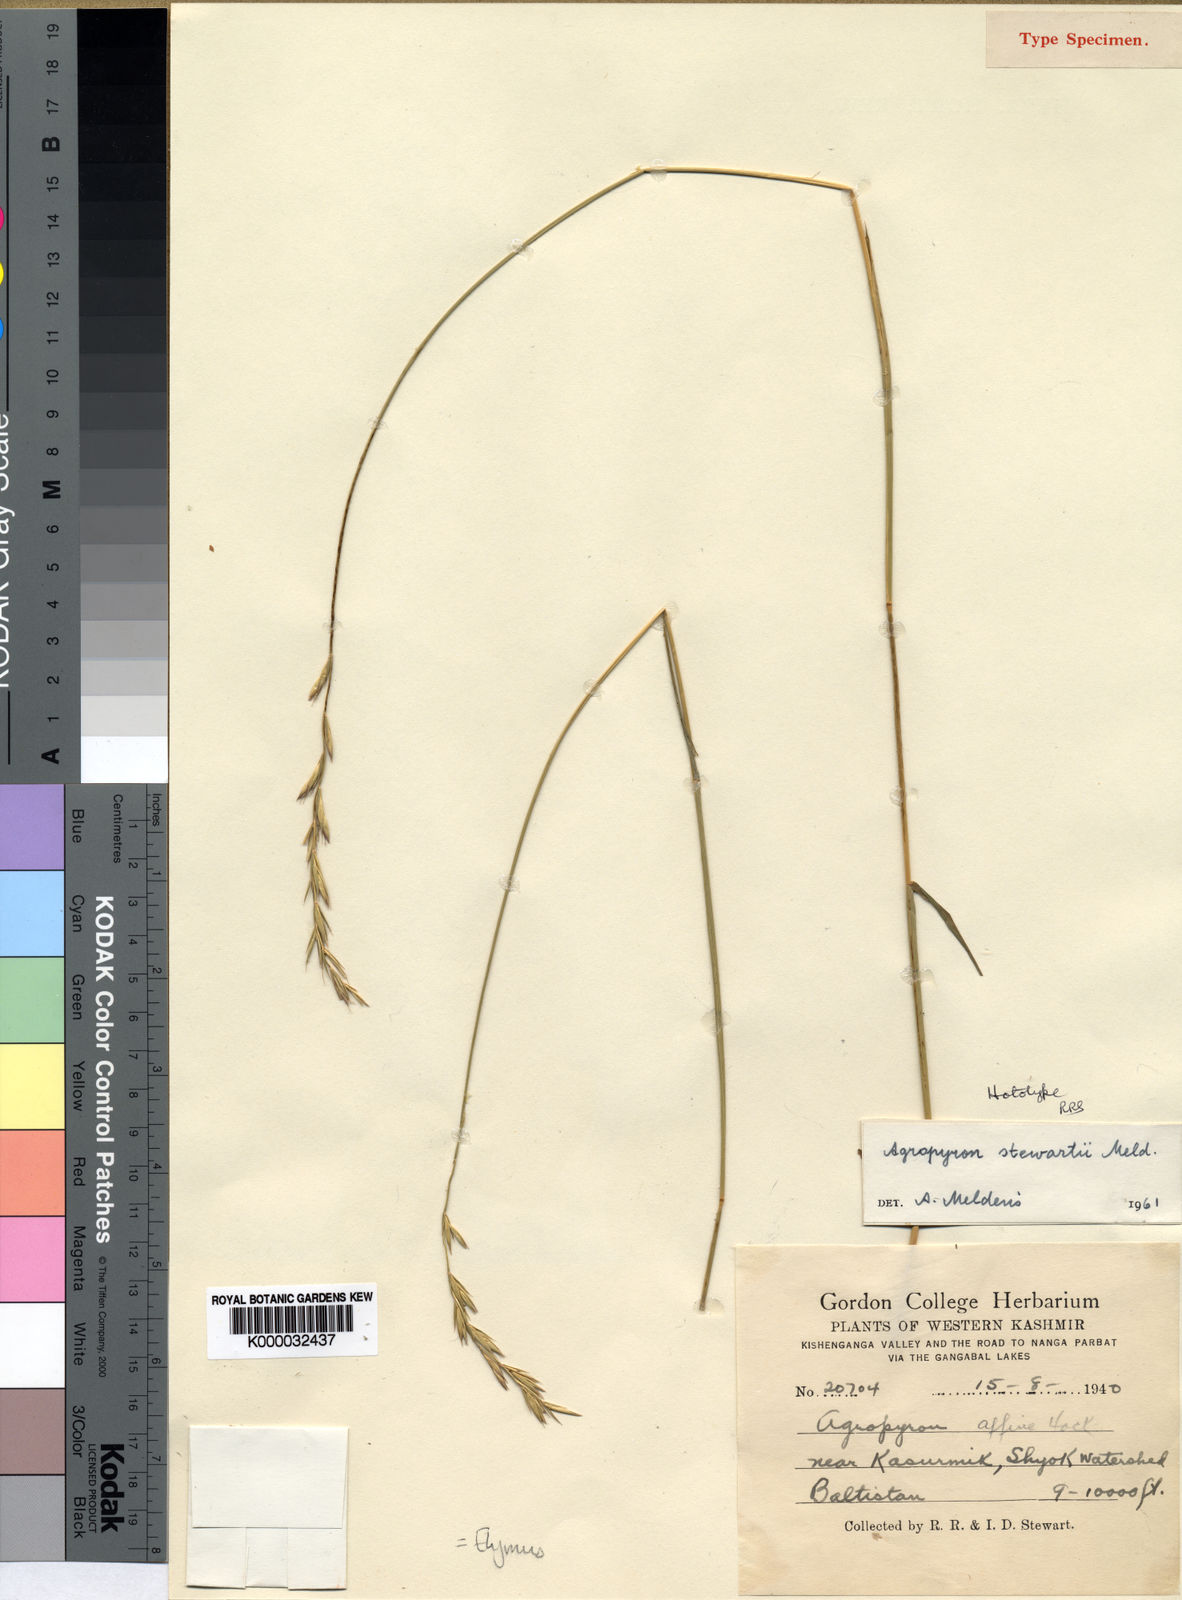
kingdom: Plantae
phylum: Tracheophyta
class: Liliopsida
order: Poales
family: Poaceae
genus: Pseudoroegneria
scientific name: Pseudoroegneria stewartii
